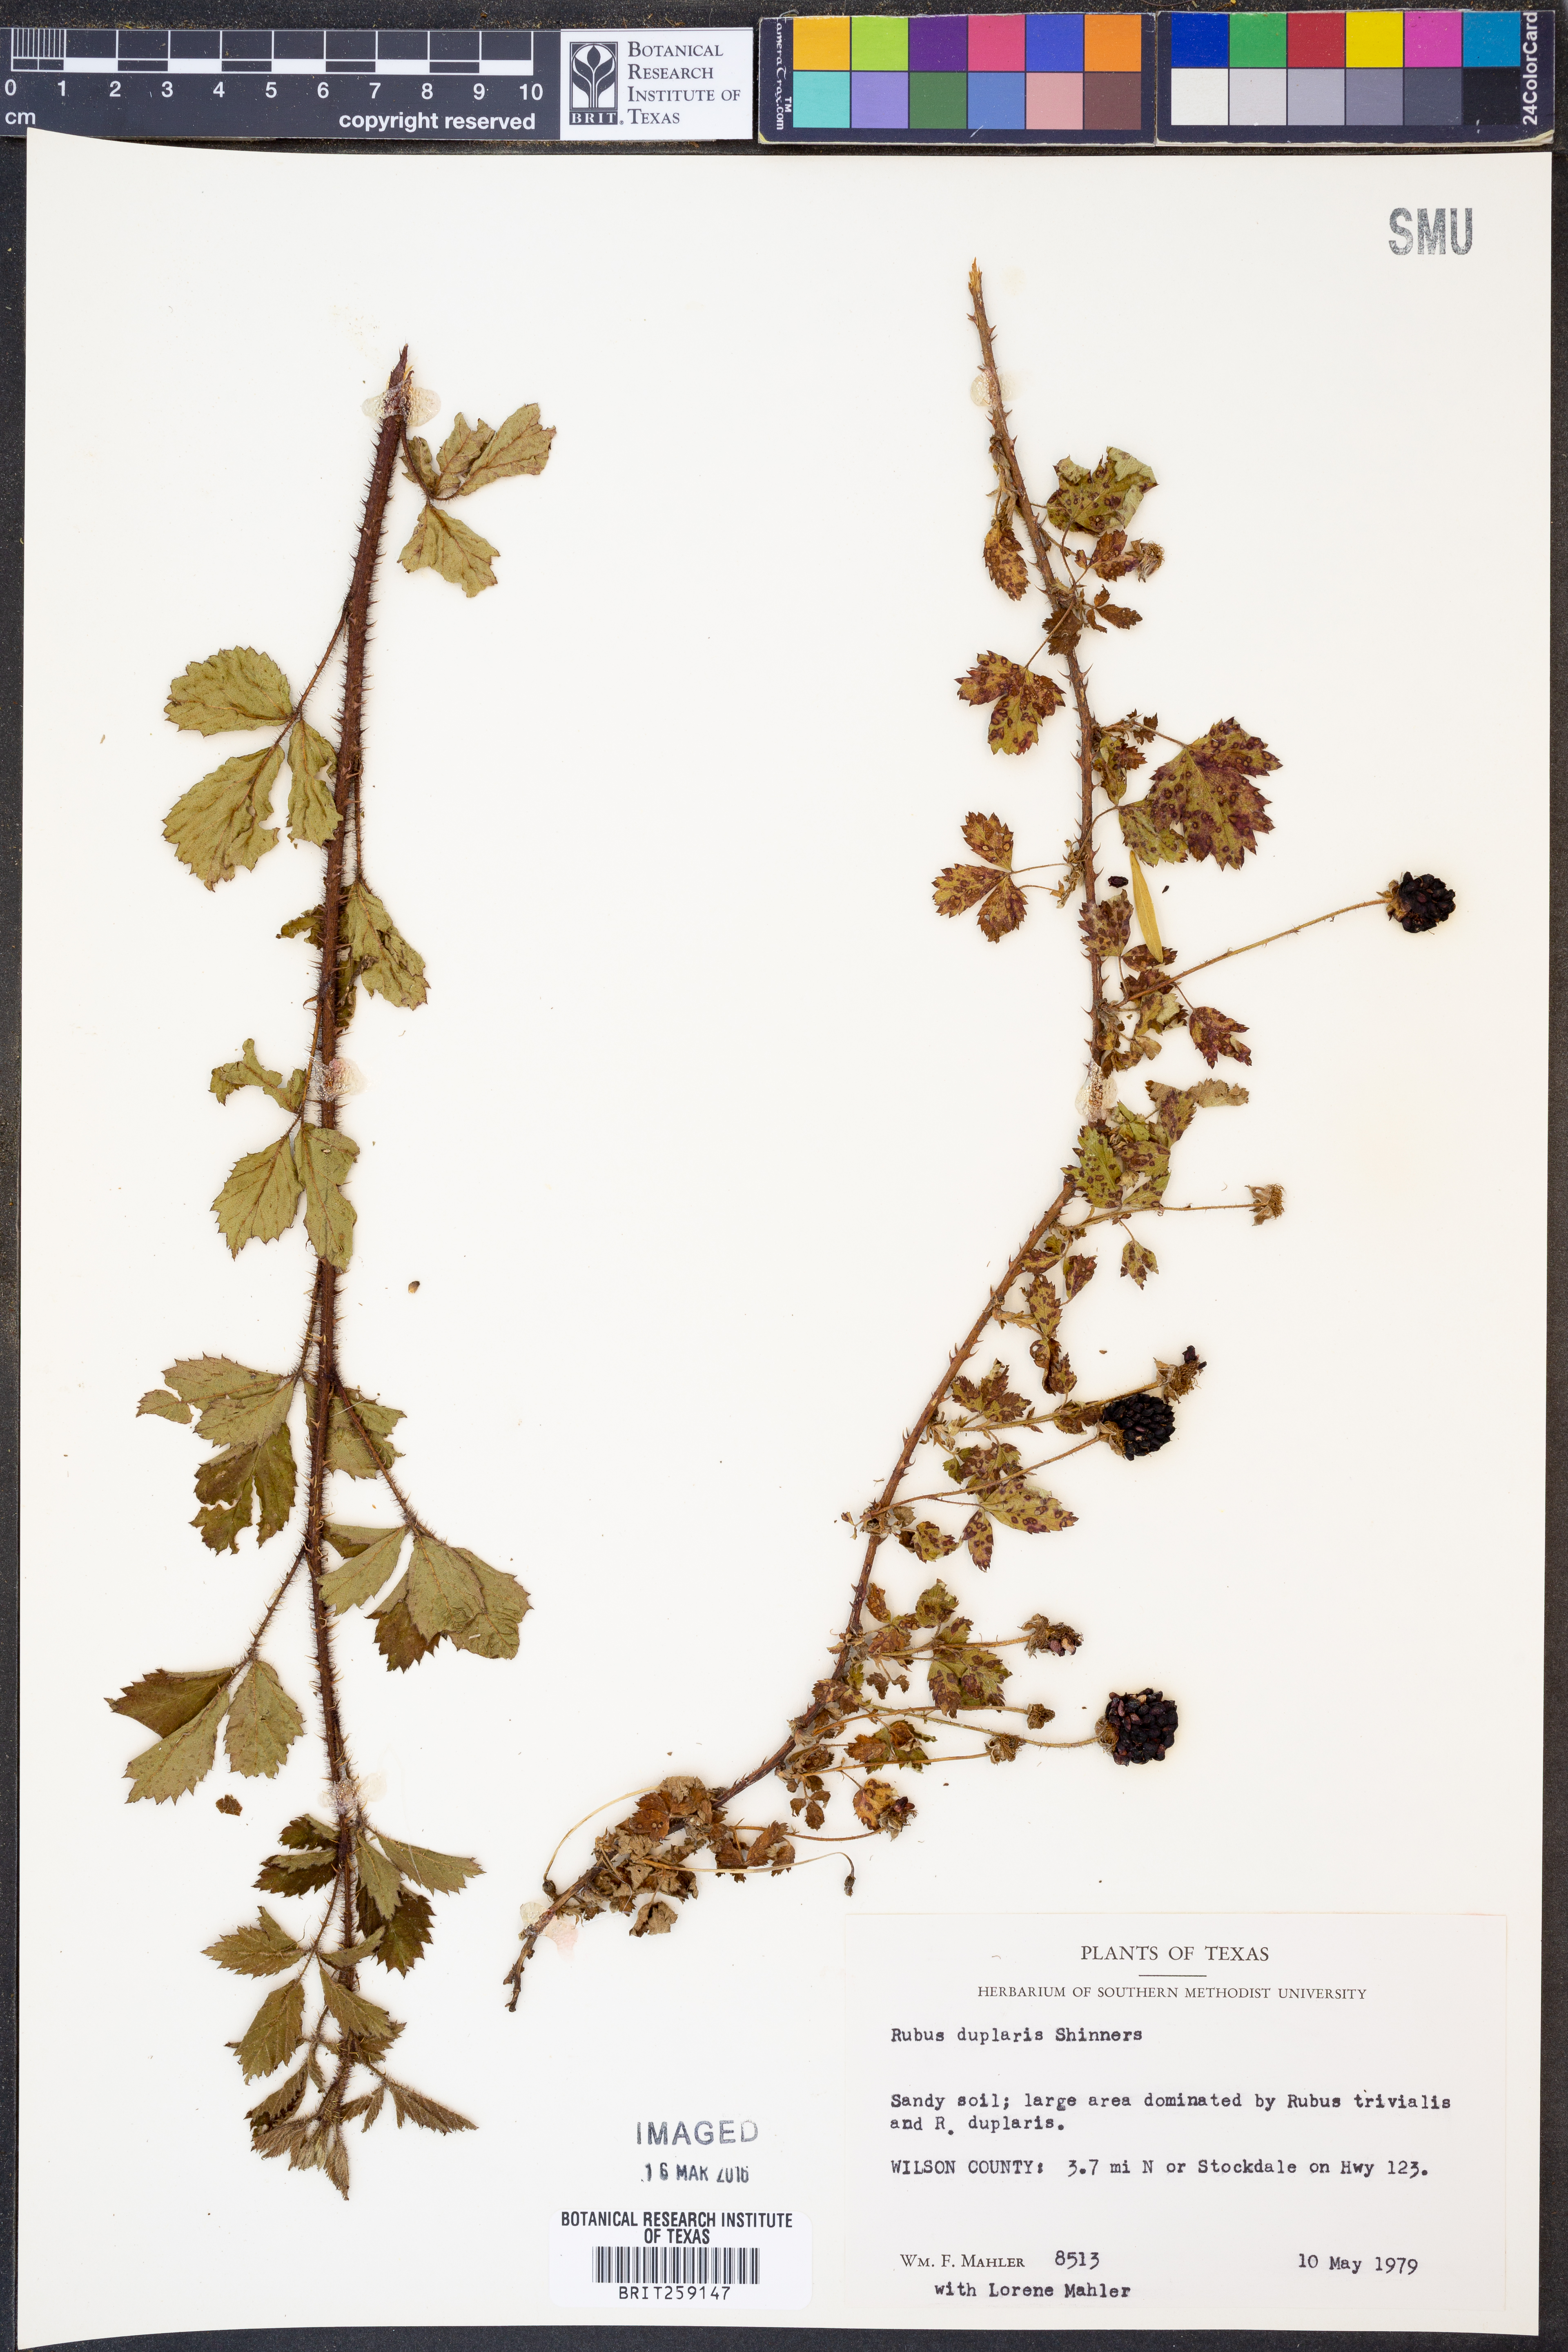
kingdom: Plantae
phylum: Tracheophyta
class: Magnoliopsida
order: Rosales
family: Rosaceae
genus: Rubus
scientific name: Rubus riograndis
